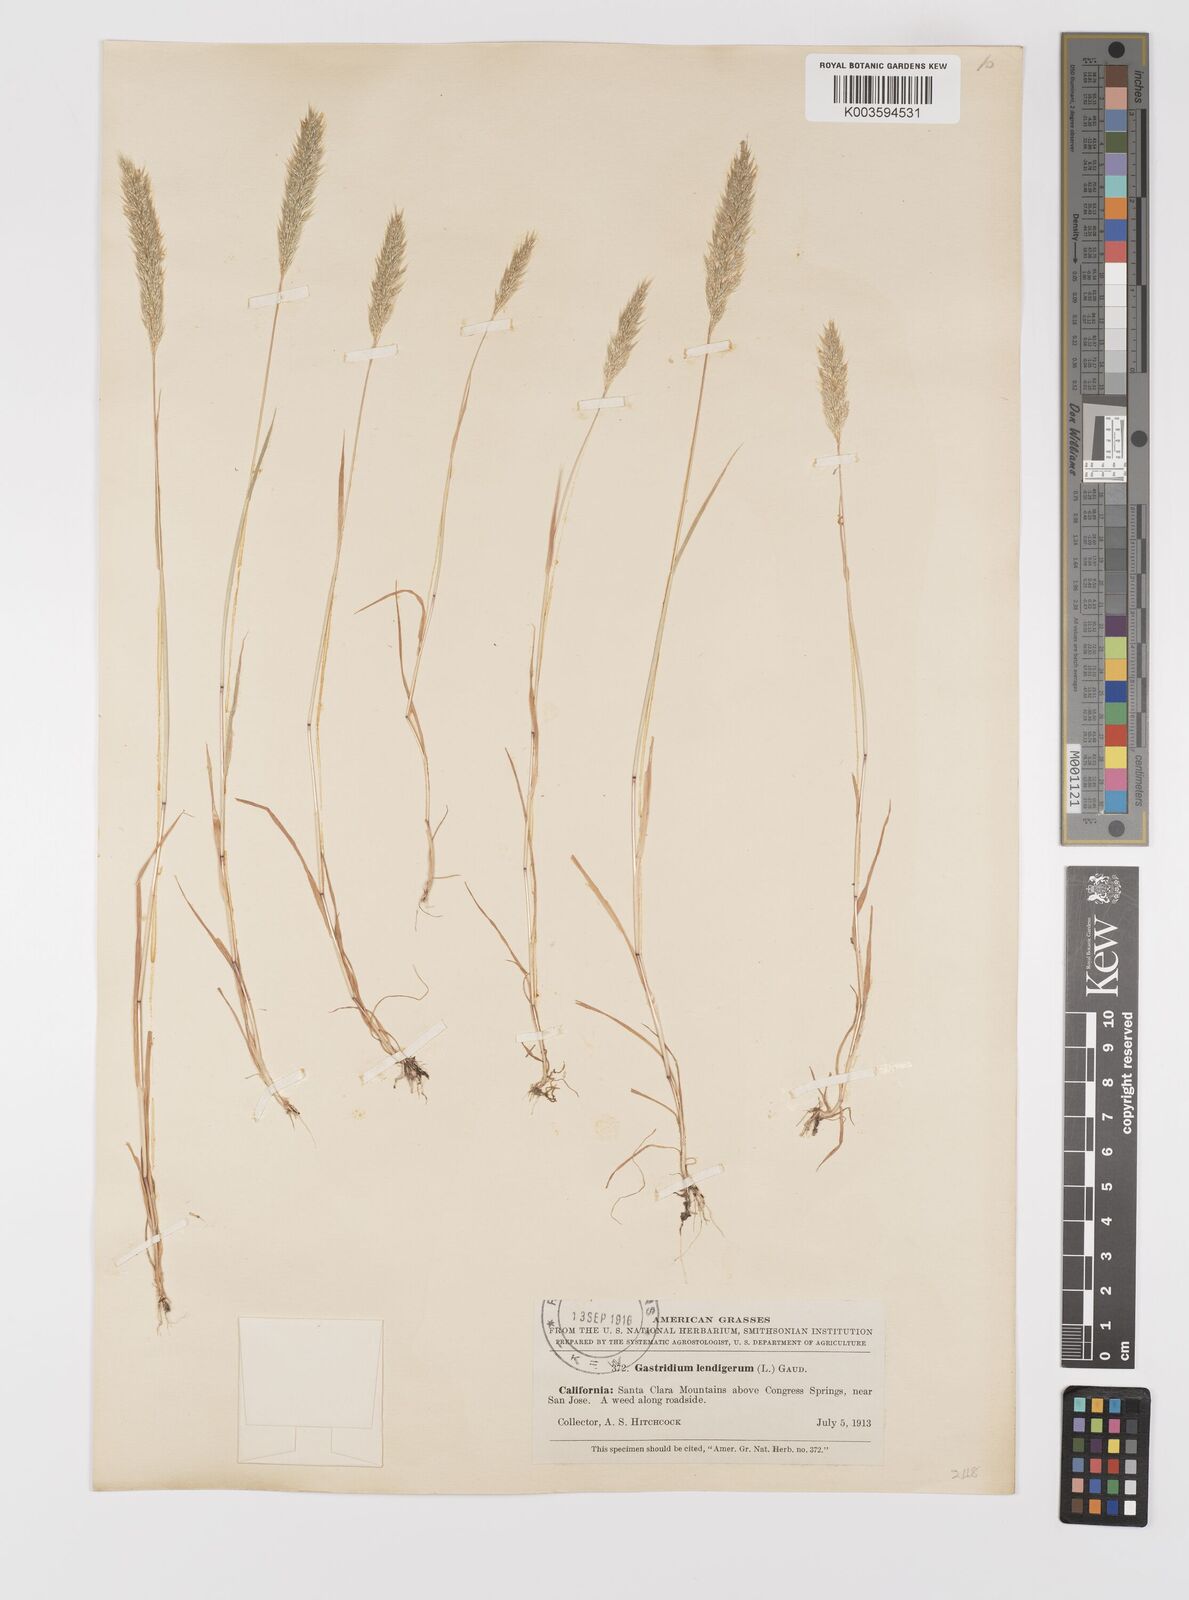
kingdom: Plantae
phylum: Tracheophyta
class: Liliopsida
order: Poales
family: Poaceae
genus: Gastridium
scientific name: Gastridium phleoides
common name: Nit grass
